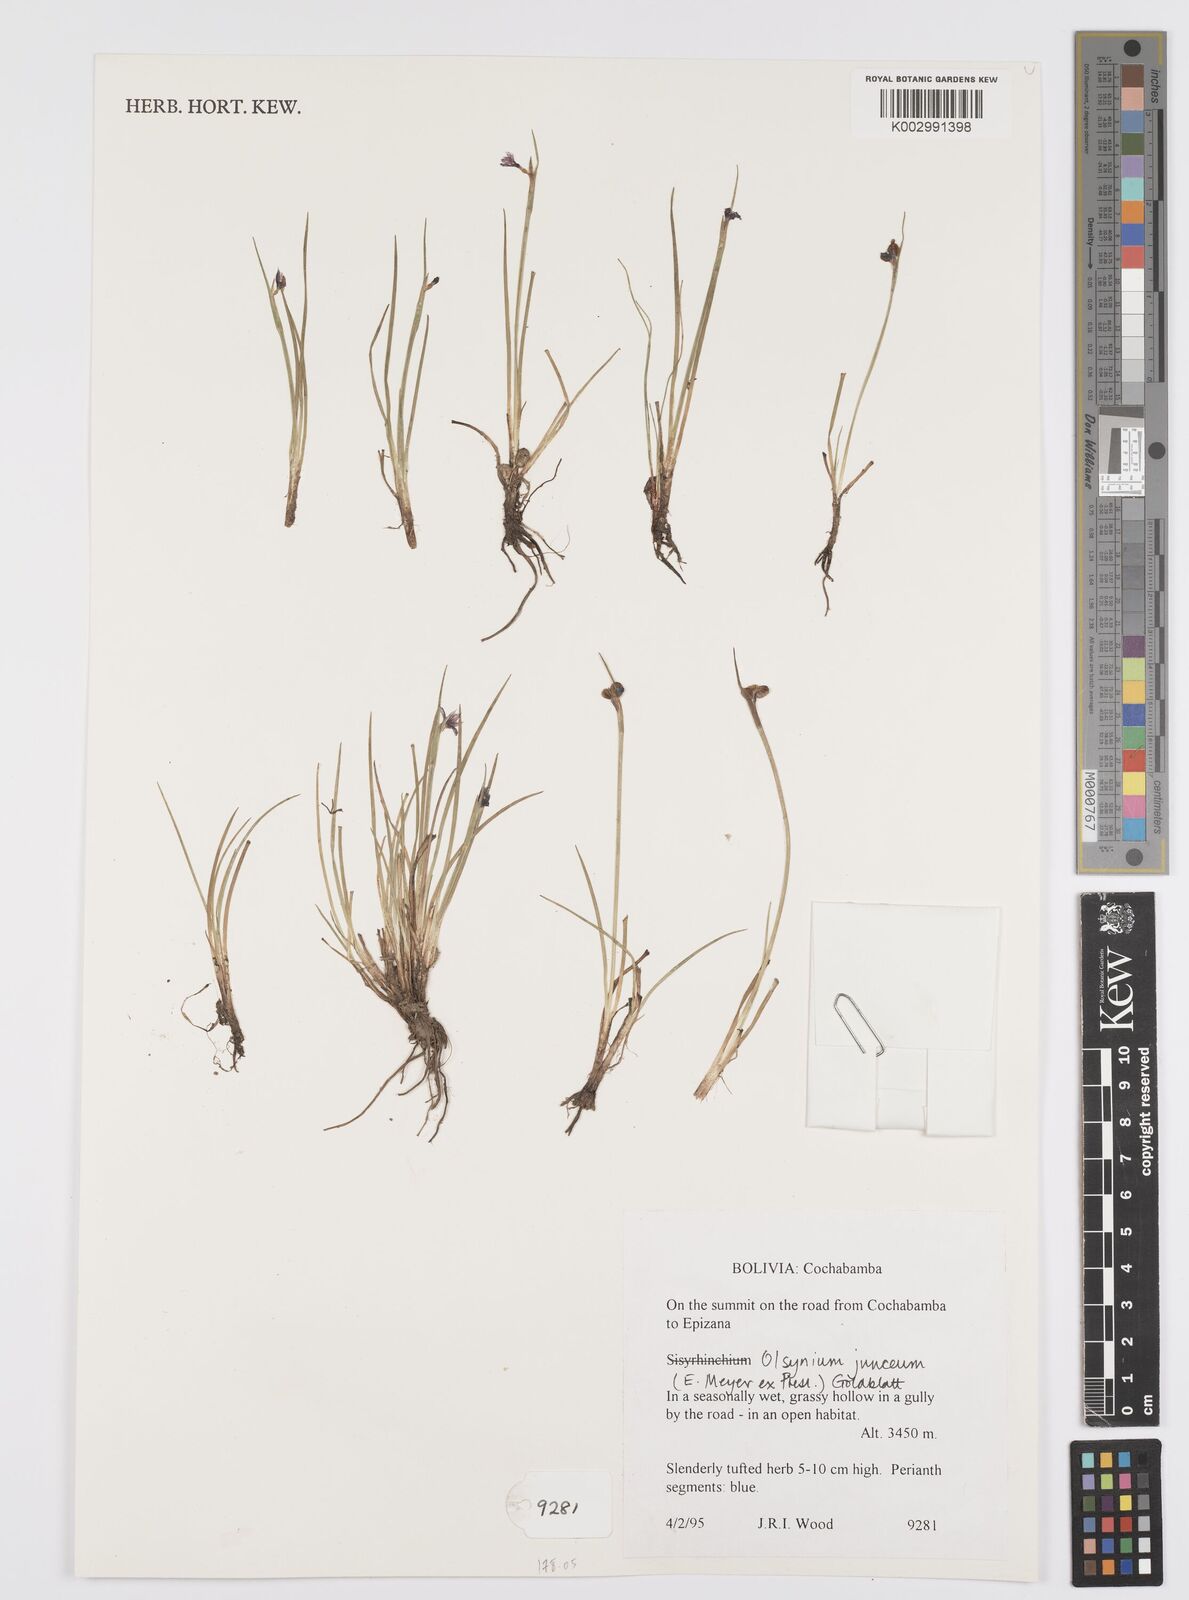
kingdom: Plantae
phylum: Tracheophyta
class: Liliopsida
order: Asparagales
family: Iridaceae
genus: Olsynium
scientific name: Olsynium junceum
